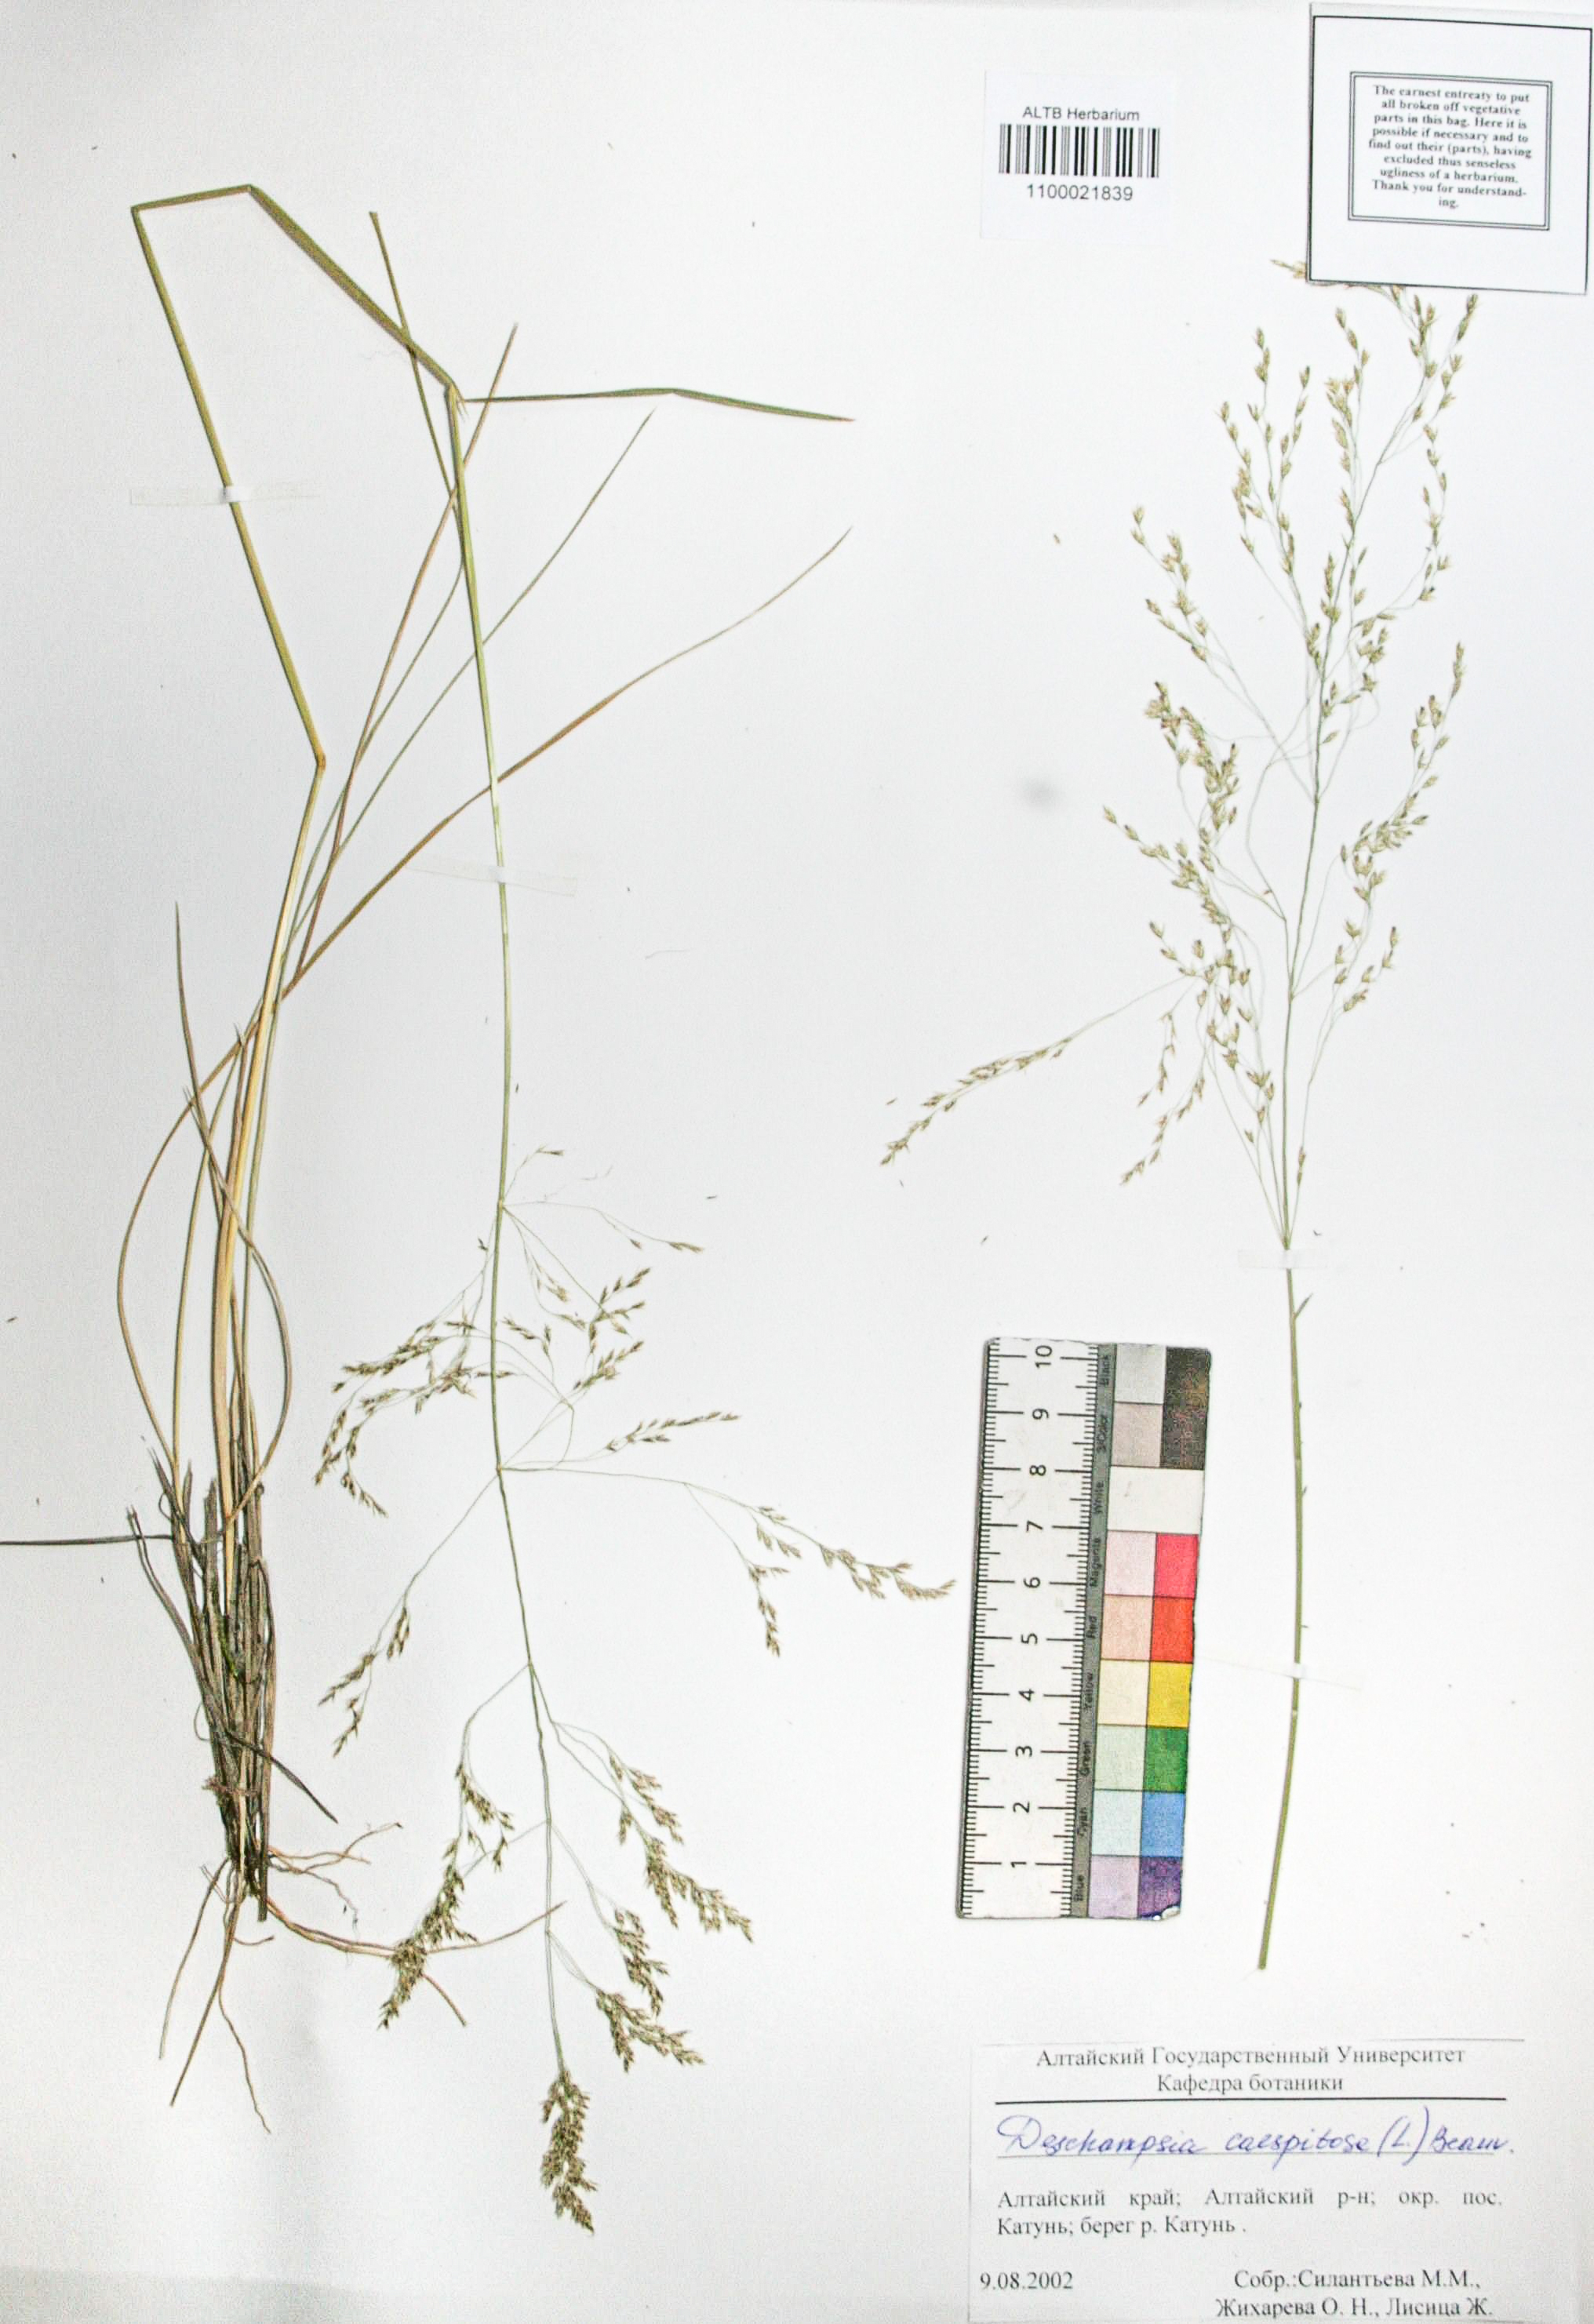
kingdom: Plantae
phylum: Tracheophyta
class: Liliopsida
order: Poales
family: Poaceae
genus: Deschampsia
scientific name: Deschampsia cespitosa
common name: Tufted hair-grass
